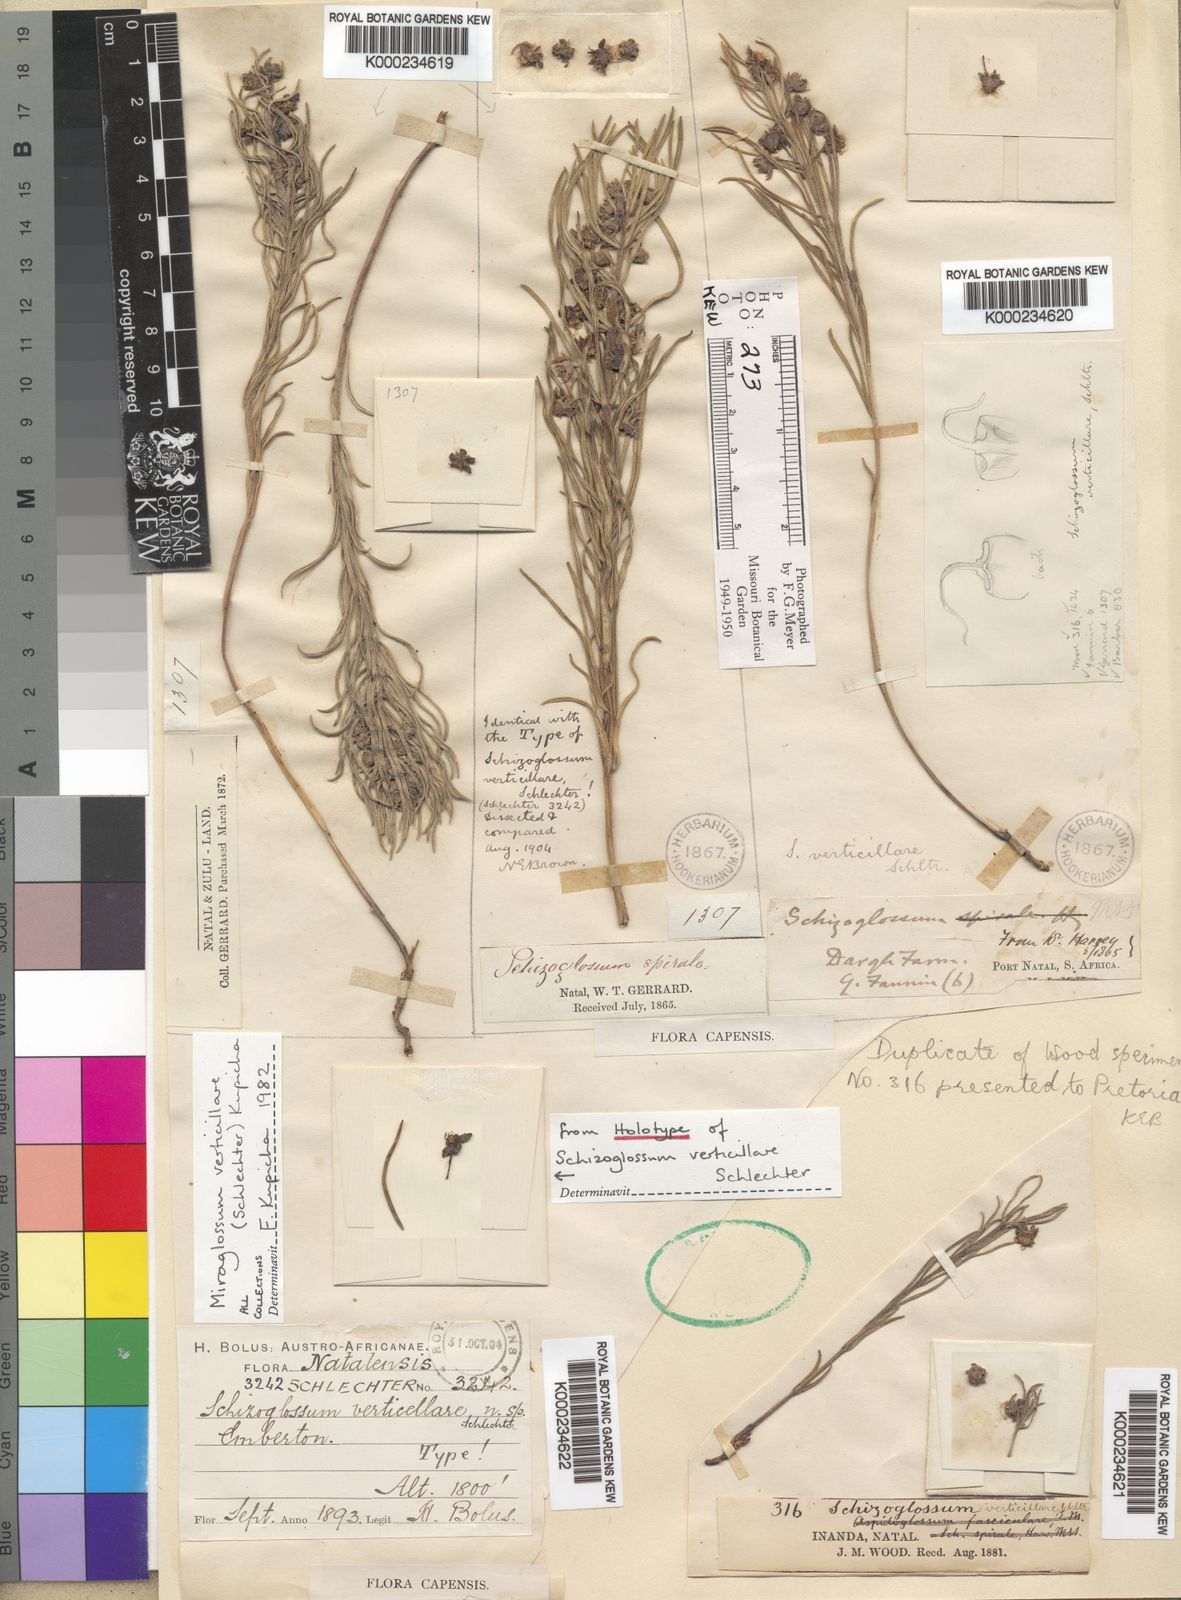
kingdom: Plantae
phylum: Tracheophyta
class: Magnoliopsida
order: Gentianales
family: Apocynaceae
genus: Miraglossum
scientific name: Miraglossum verticillare
